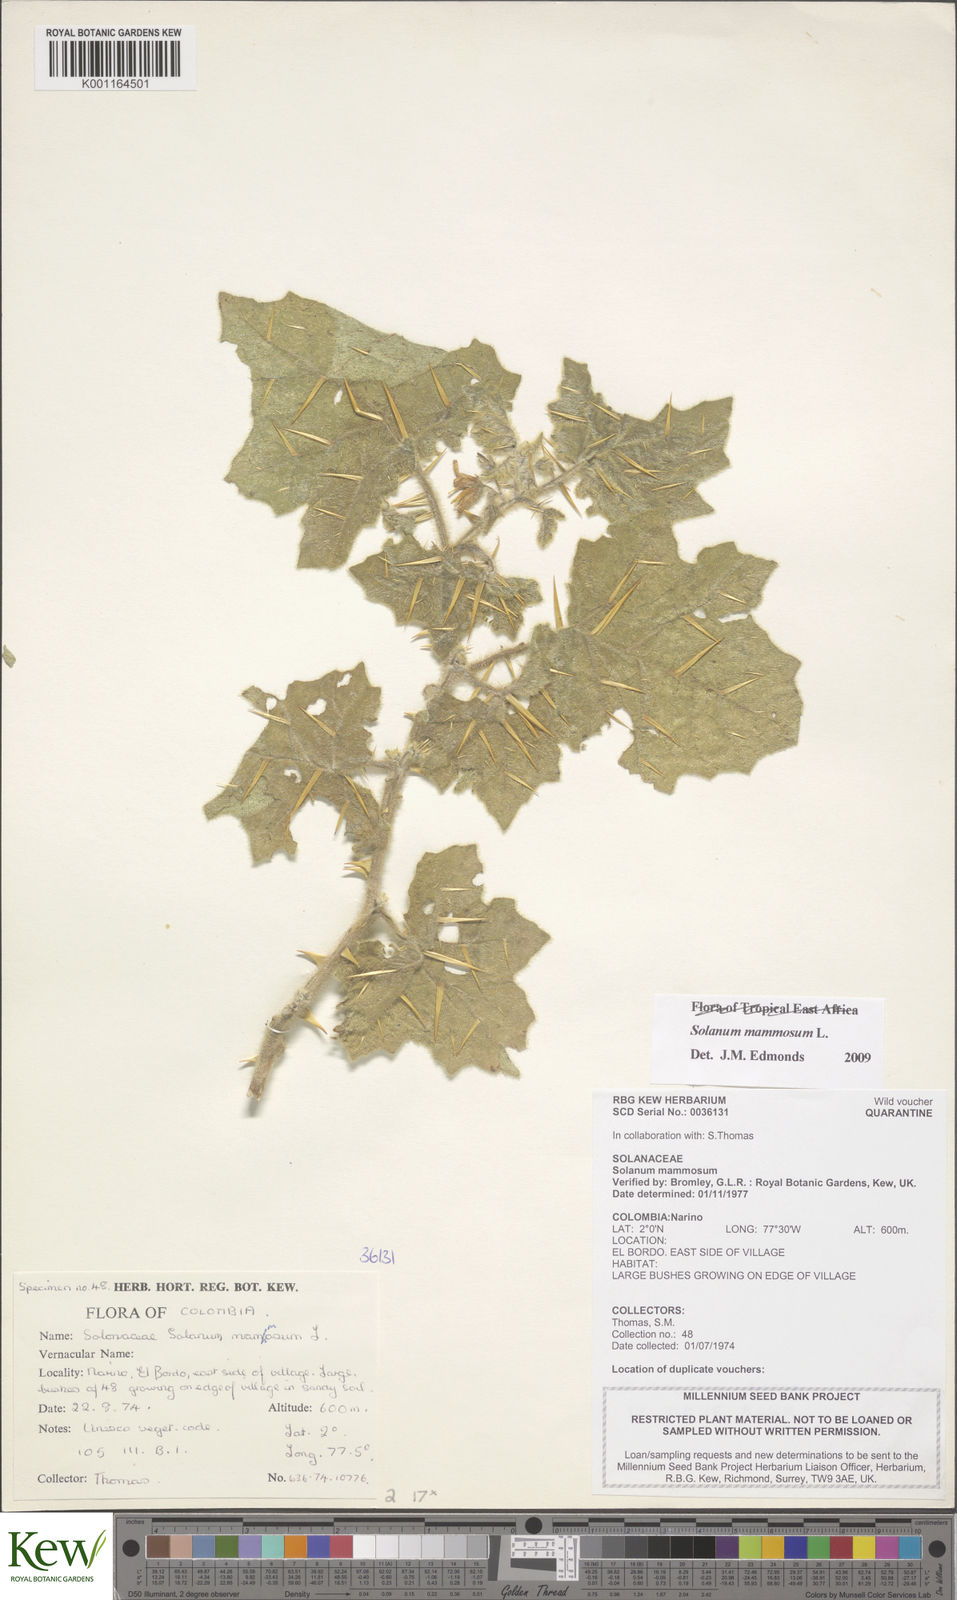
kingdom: Plantae
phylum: Tracheophyta
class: Magnoliopsida
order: Solanales
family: Solanaceae
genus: Solanum
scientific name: Solanum mammosum
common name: Nipple fruit
